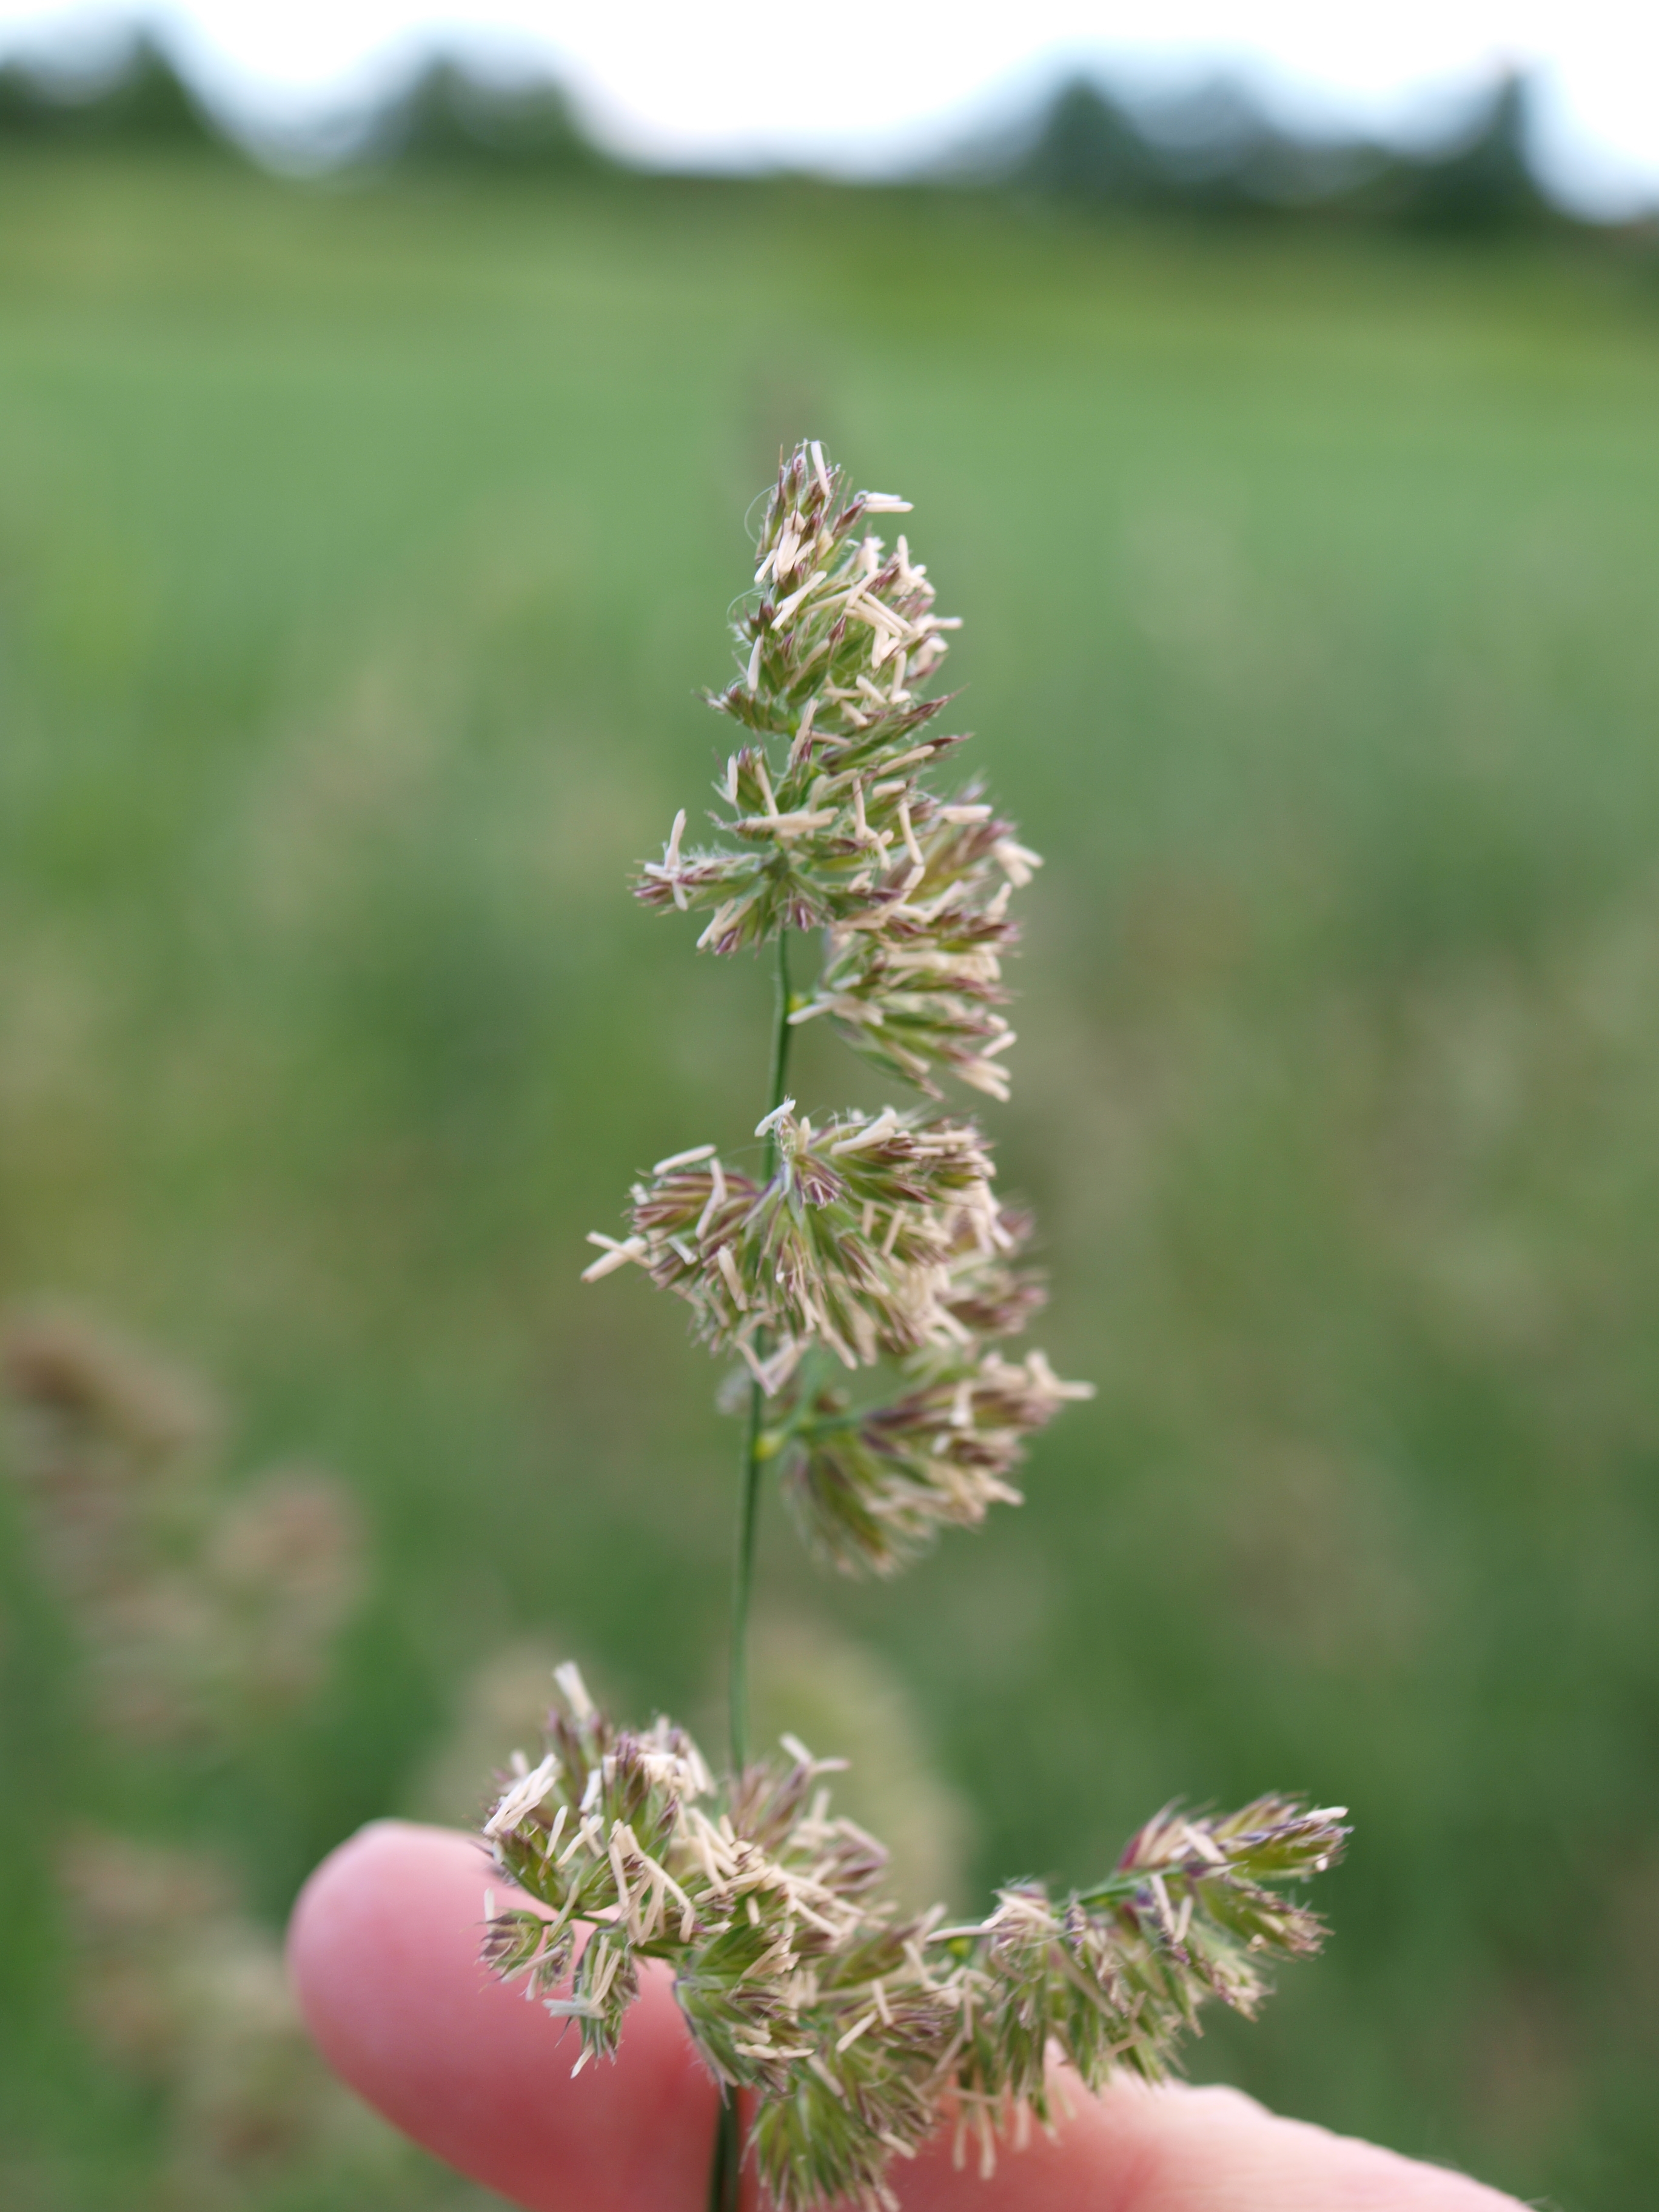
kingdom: Plantae
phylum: Tracheophyta
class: Liliopsida
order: Poales
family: Poaceae
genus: Dactylis
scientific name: Dactylis glomerata
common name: Orchardgrass
